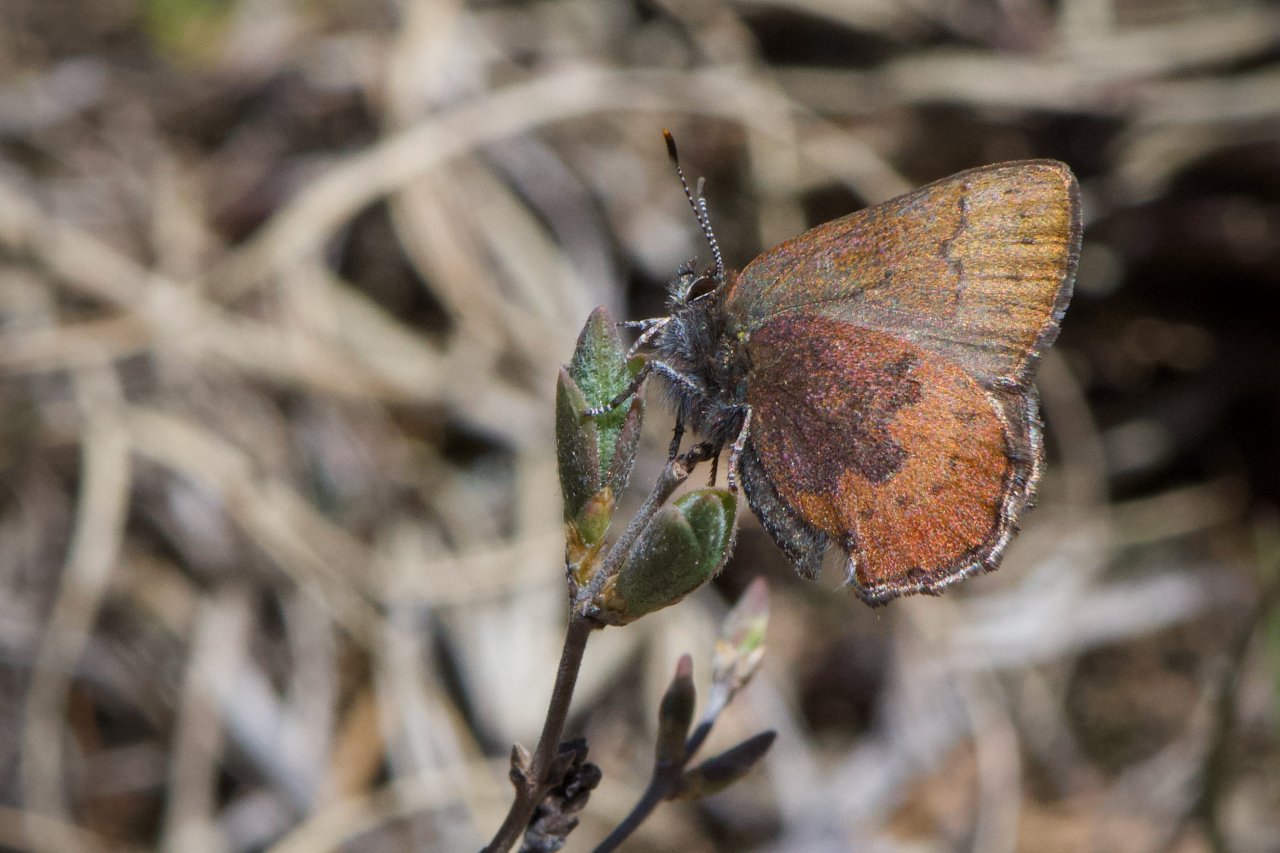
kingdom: Animalia
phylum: Arthropoda
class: Insecta
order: Lepidoptera
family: Lycaenidae
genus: Incisalia
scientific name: Incisalia irioides
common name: Brown Elfin
